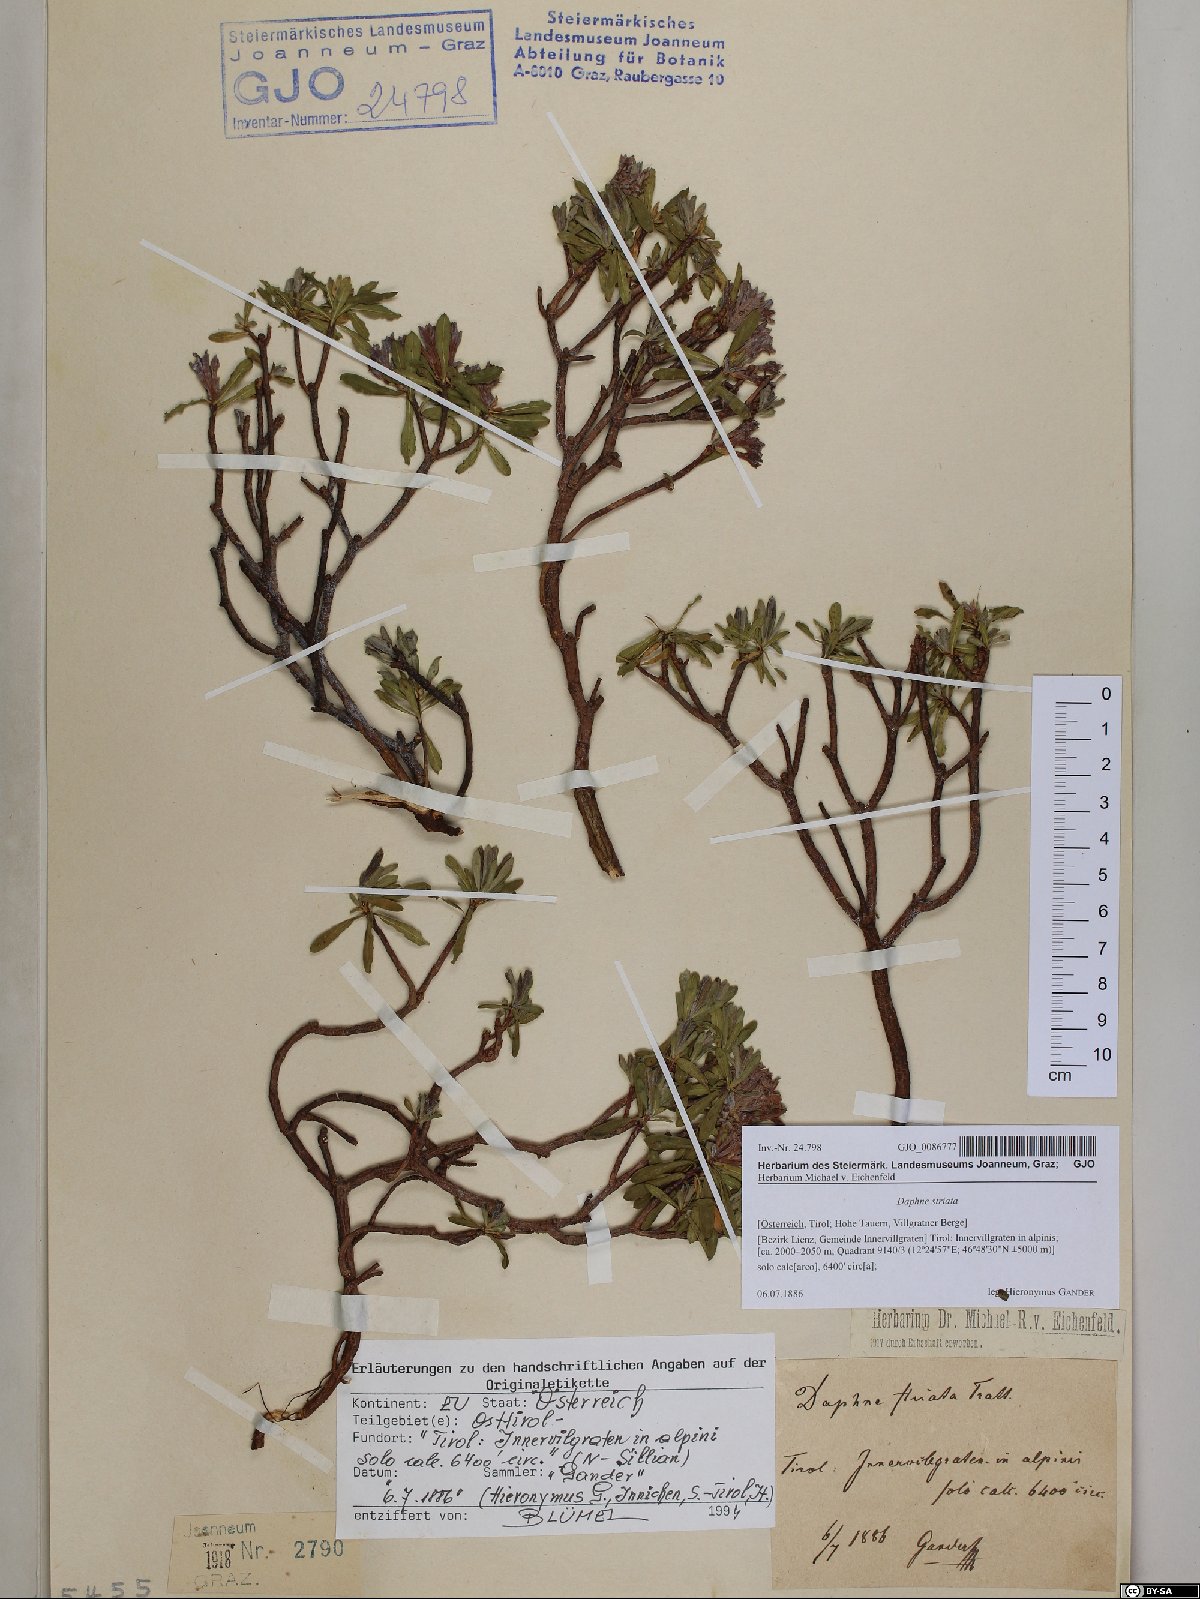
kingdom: Plantae
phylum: Tracheophyta
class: Magnoliopsida
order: Malvales
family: Thymelaeaceae
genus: Daphne
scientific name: Daphne striata
